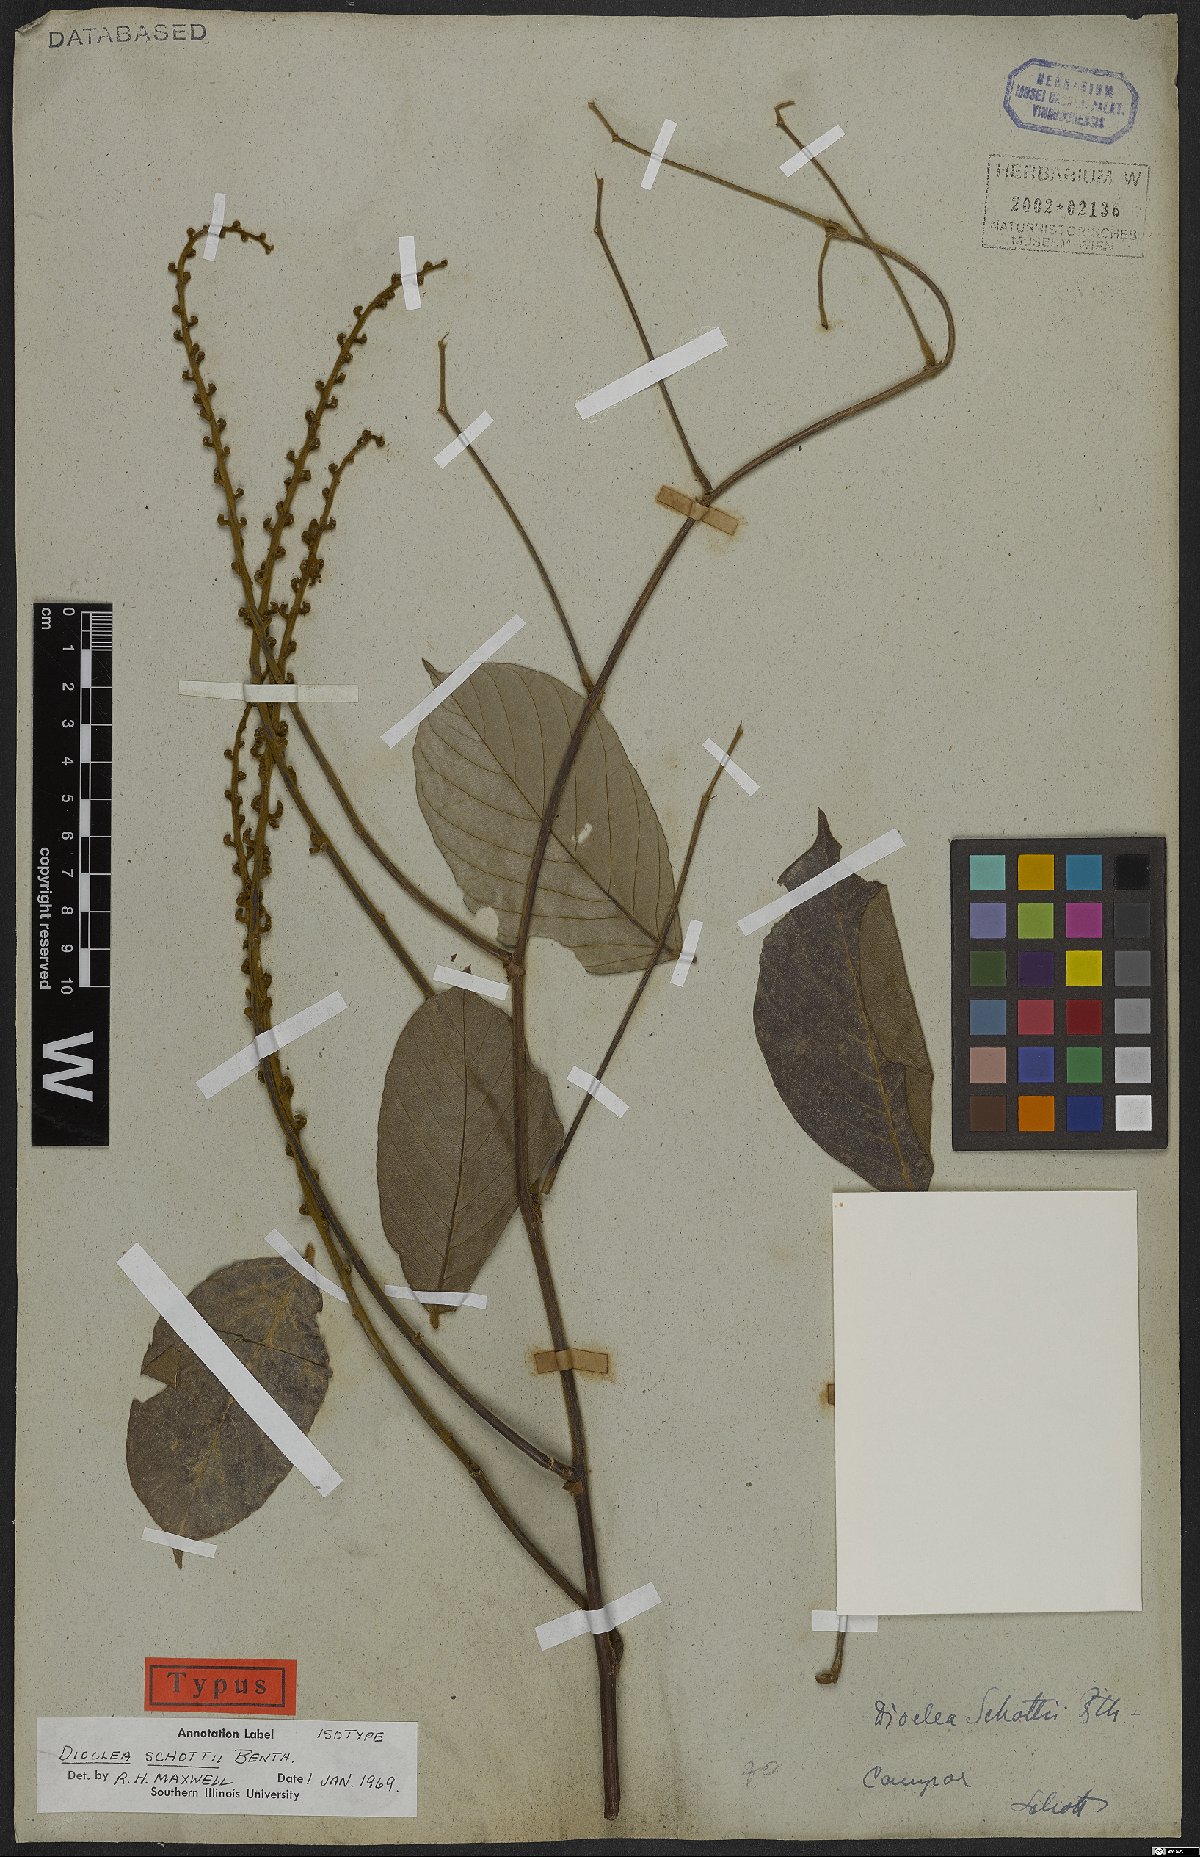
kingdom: Plantae
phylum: Tracheophyta
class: Magnoliopsida
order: Fabales
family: Fabaceae
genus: Macropsychanthus
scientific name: Macropsychanthus schottii
